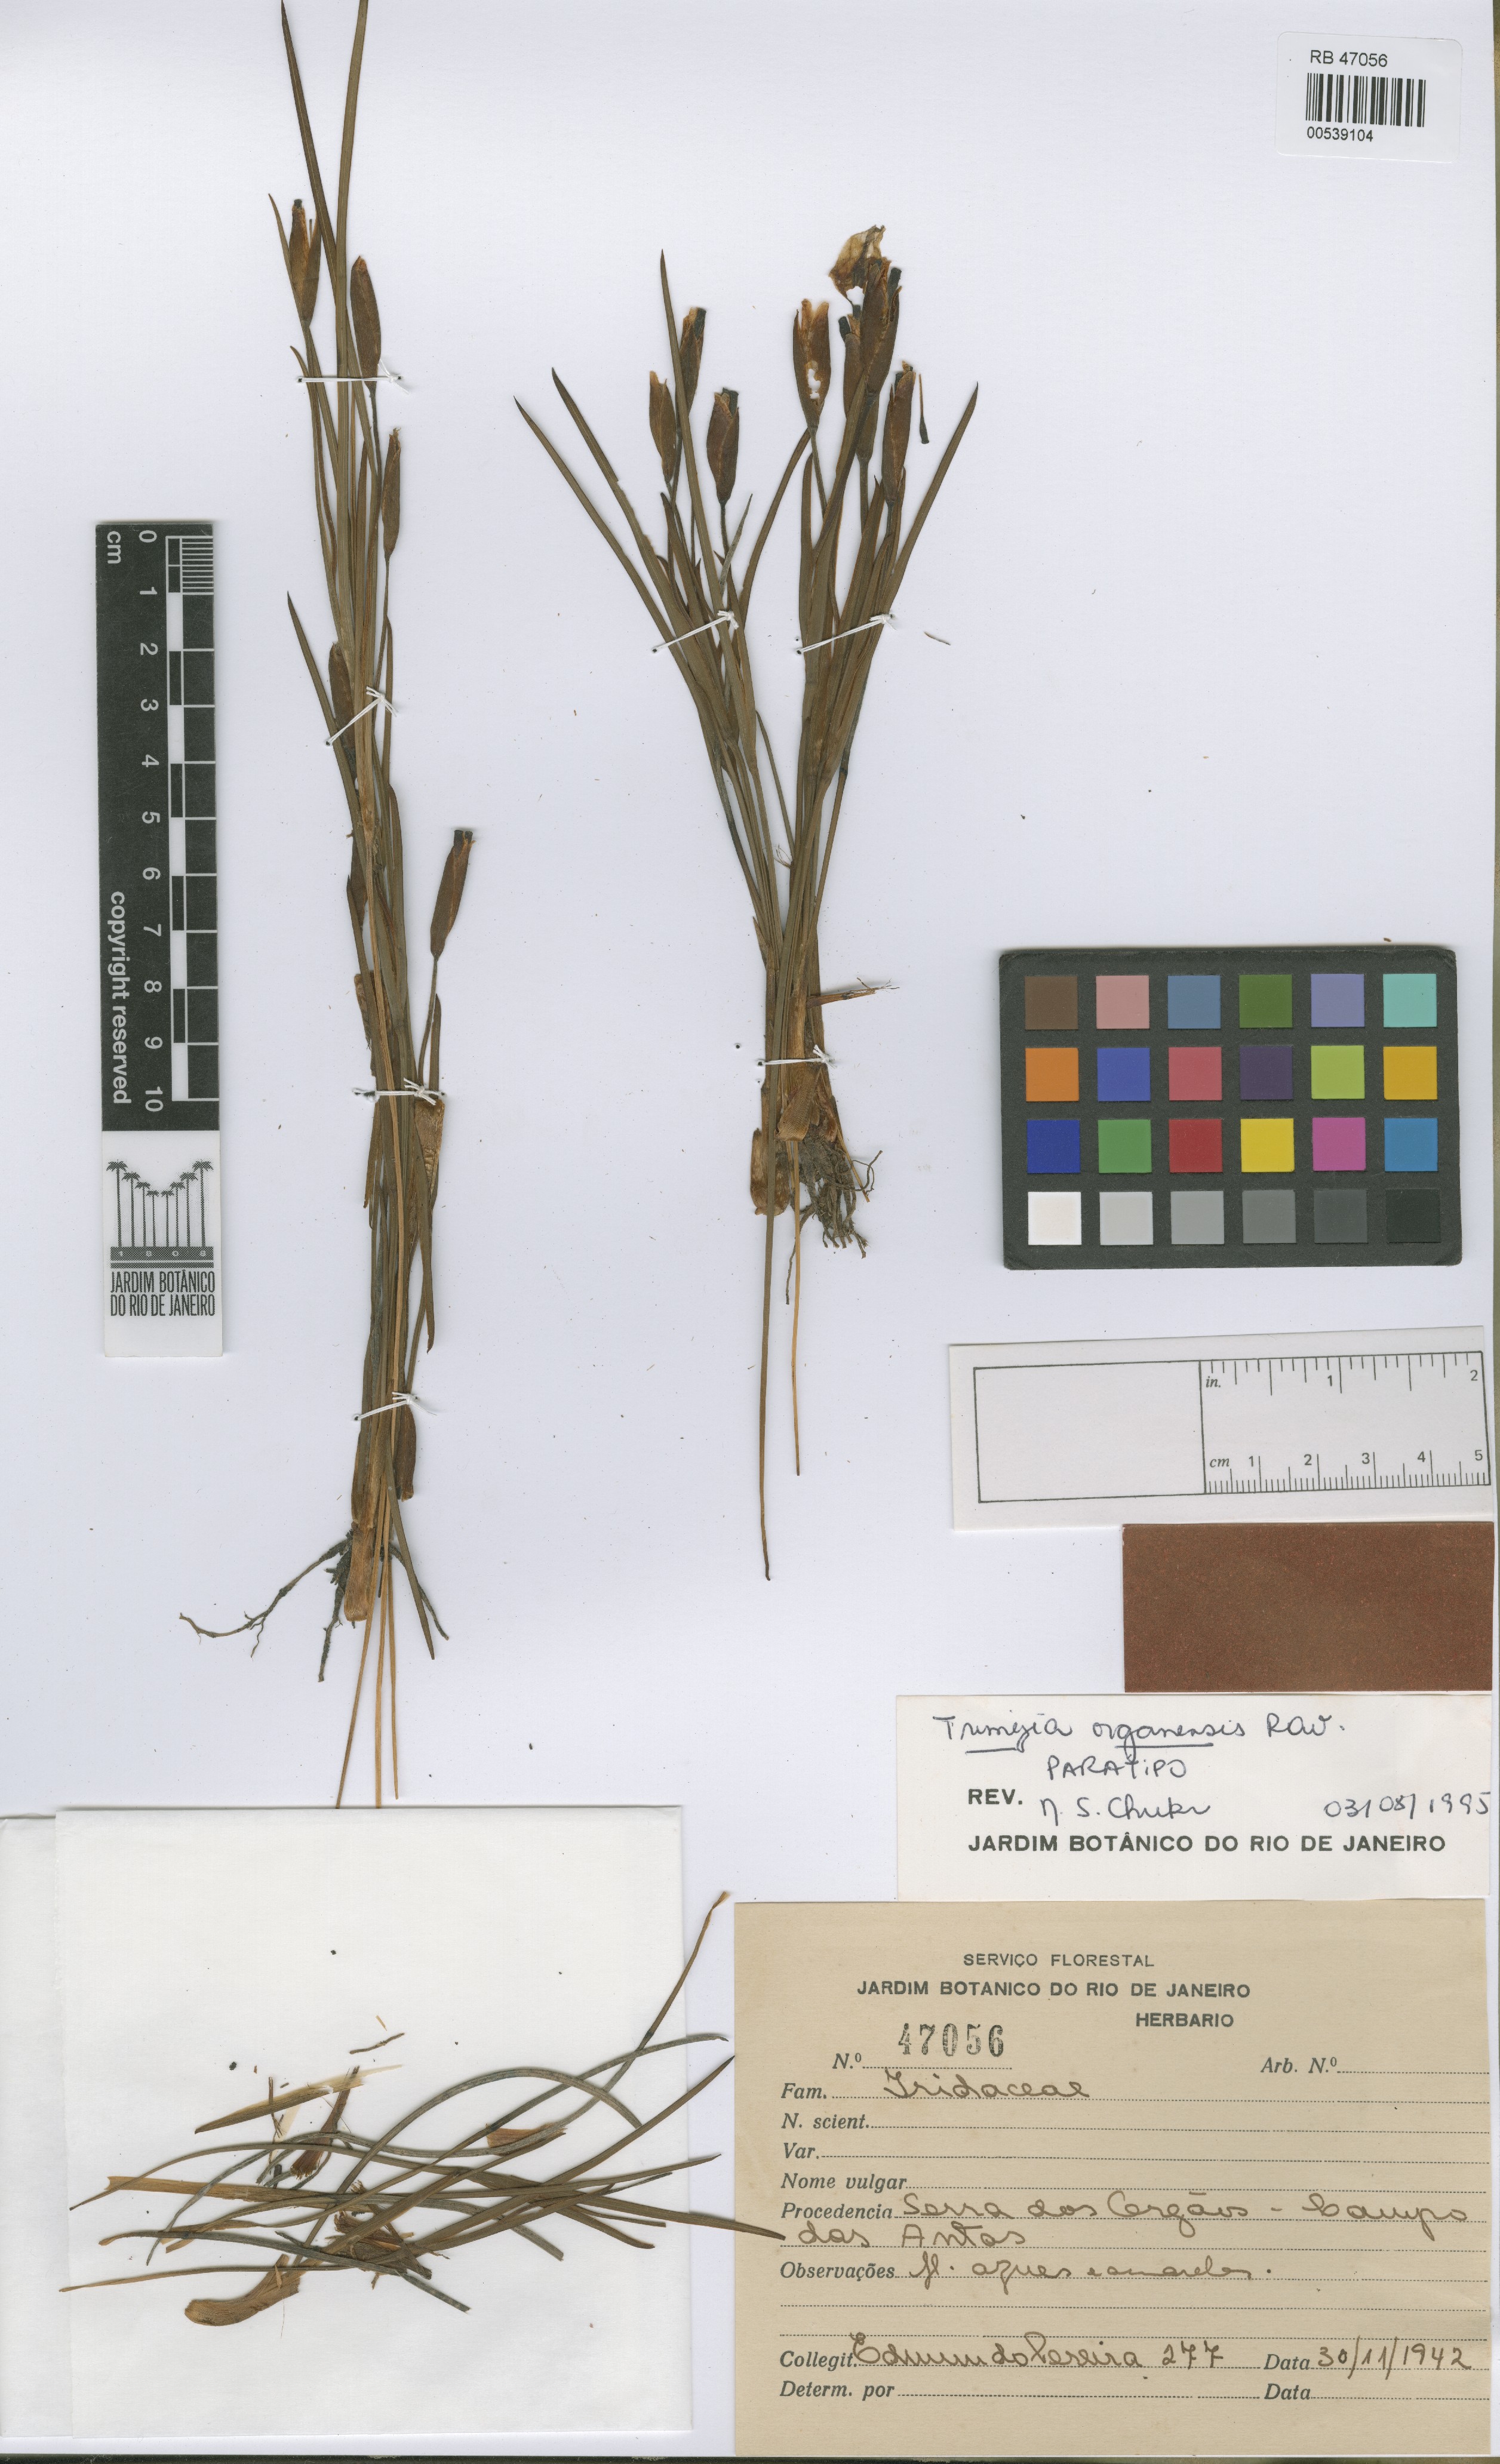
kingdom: Plantae
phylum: Tracheophyta
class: Liliopsida
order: Asparagales
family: Iridaceae
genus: Trimezia
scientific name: Trimezia organensis
